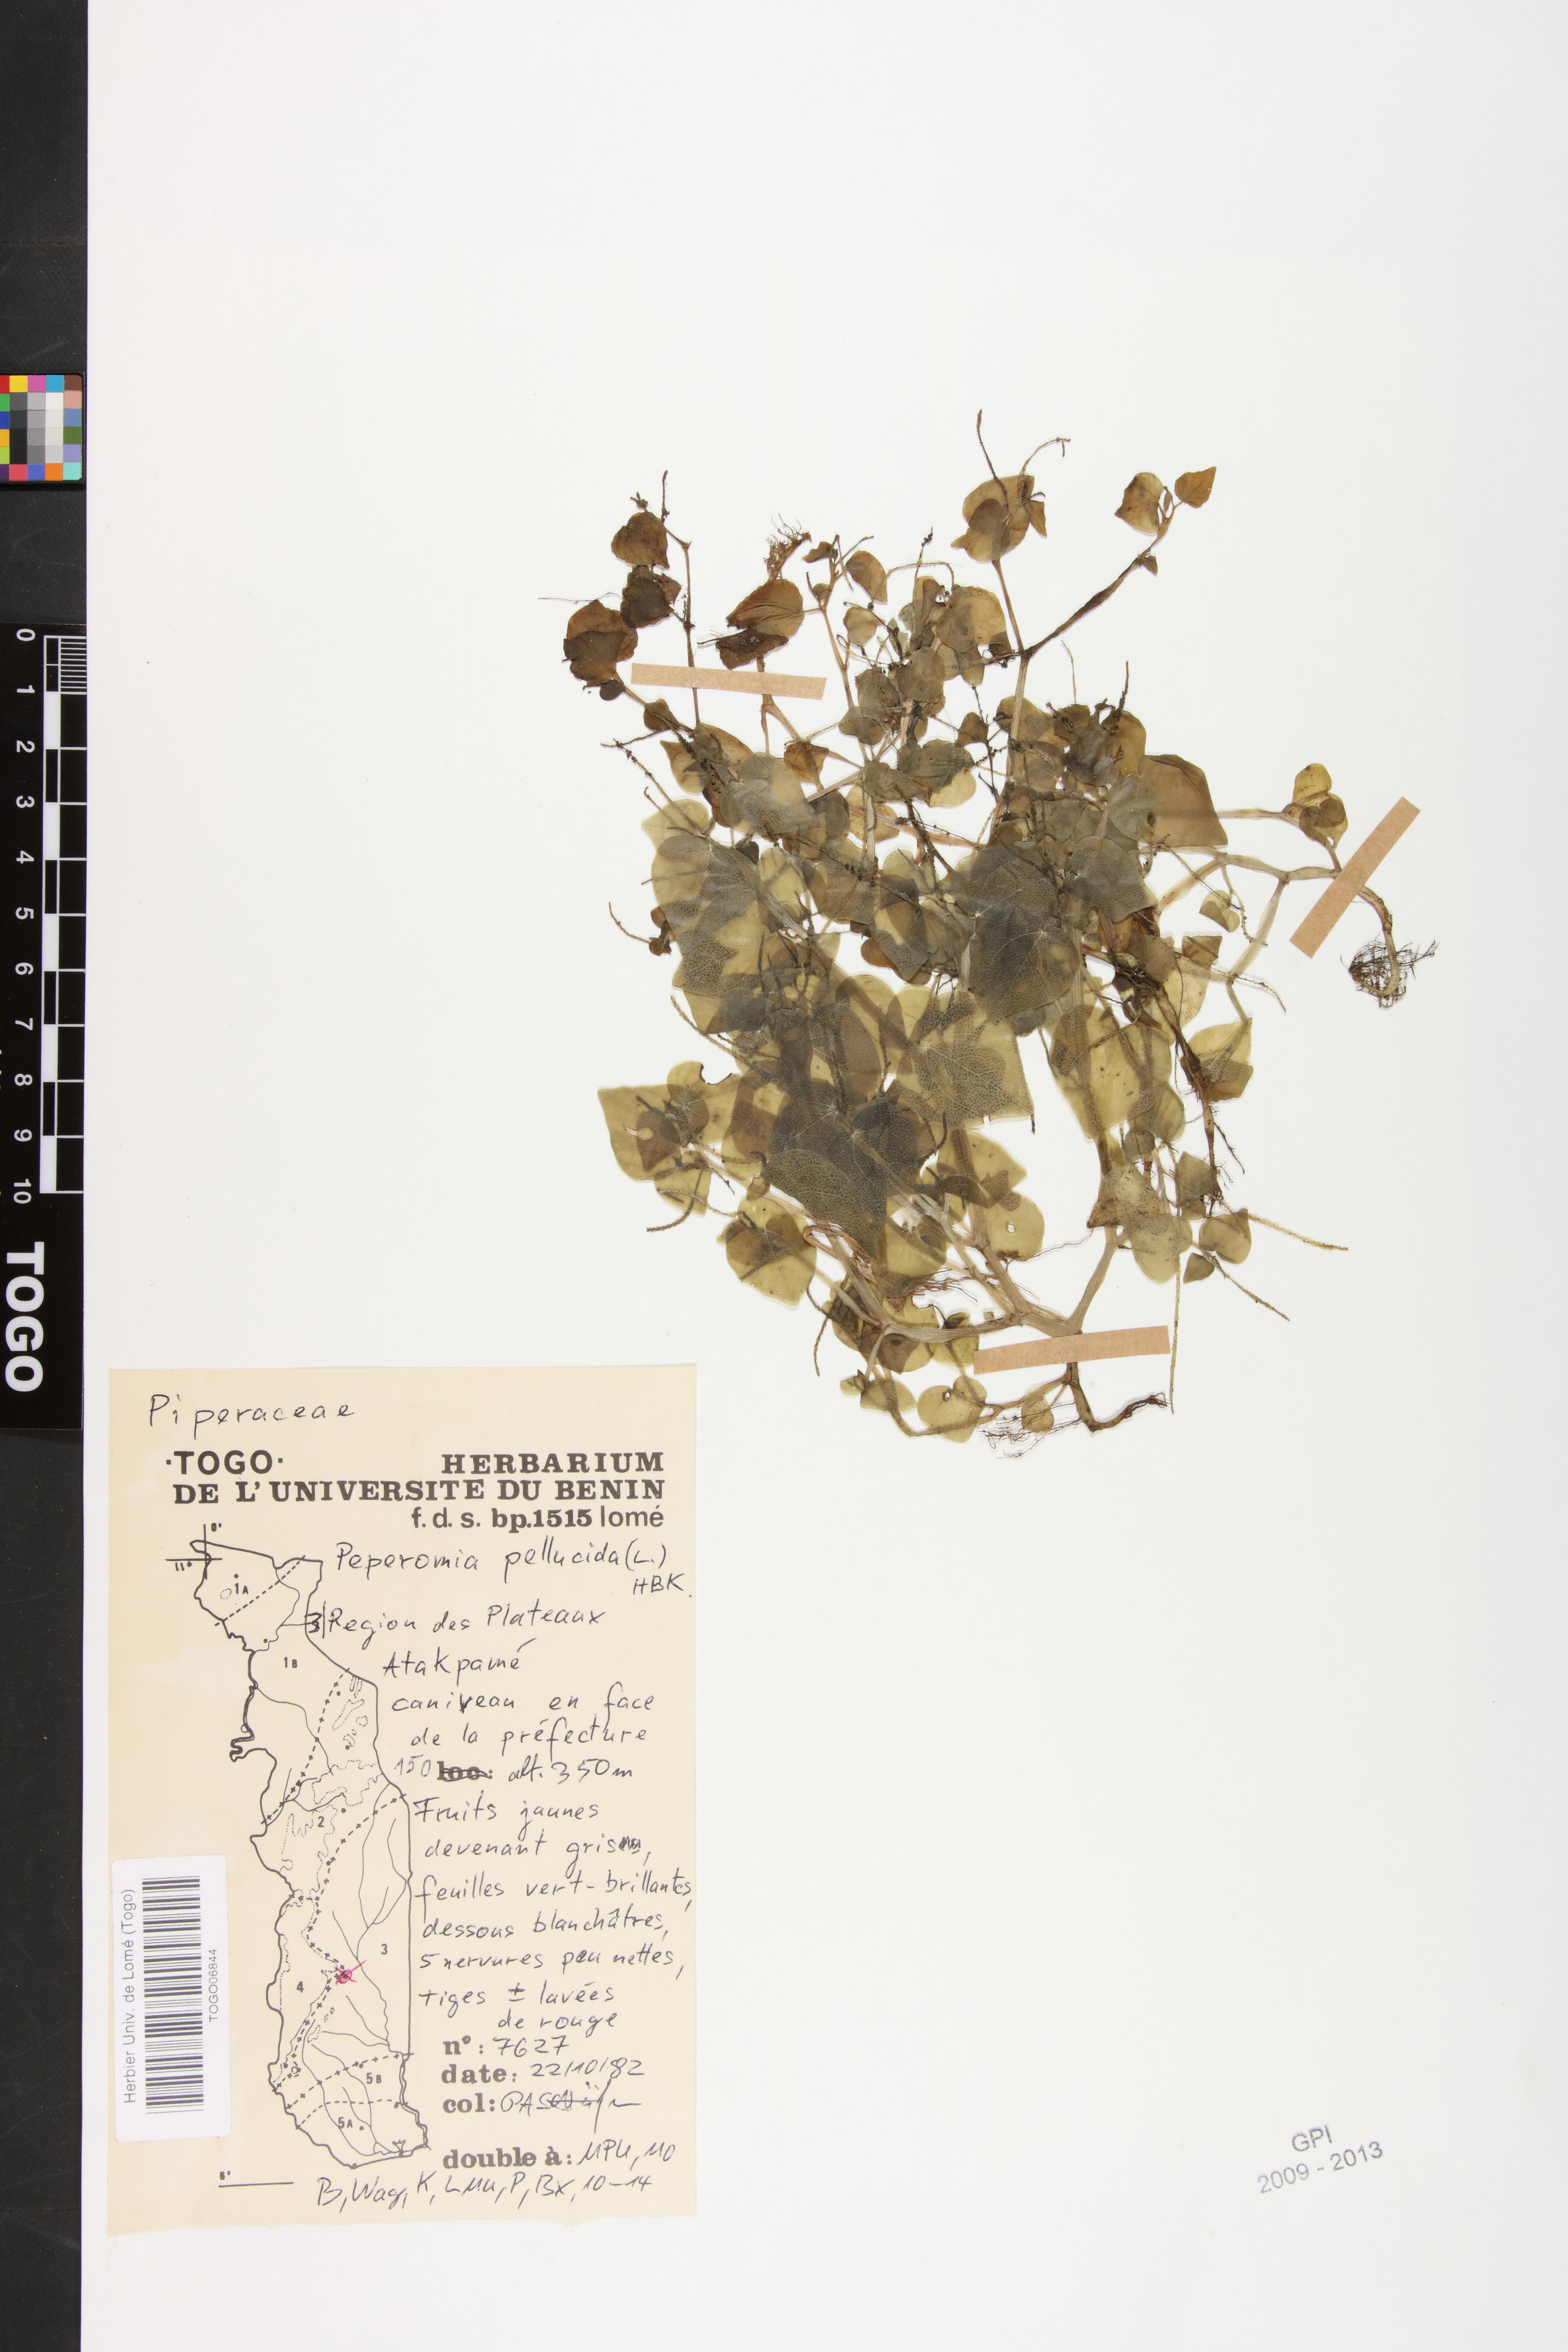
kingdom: Plantae
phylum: Tracheophyta
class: Magnoliopsida
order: Piperales
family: Piperaceae
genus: Peperomia
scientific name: Peperomia pellucida
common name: Man to man
